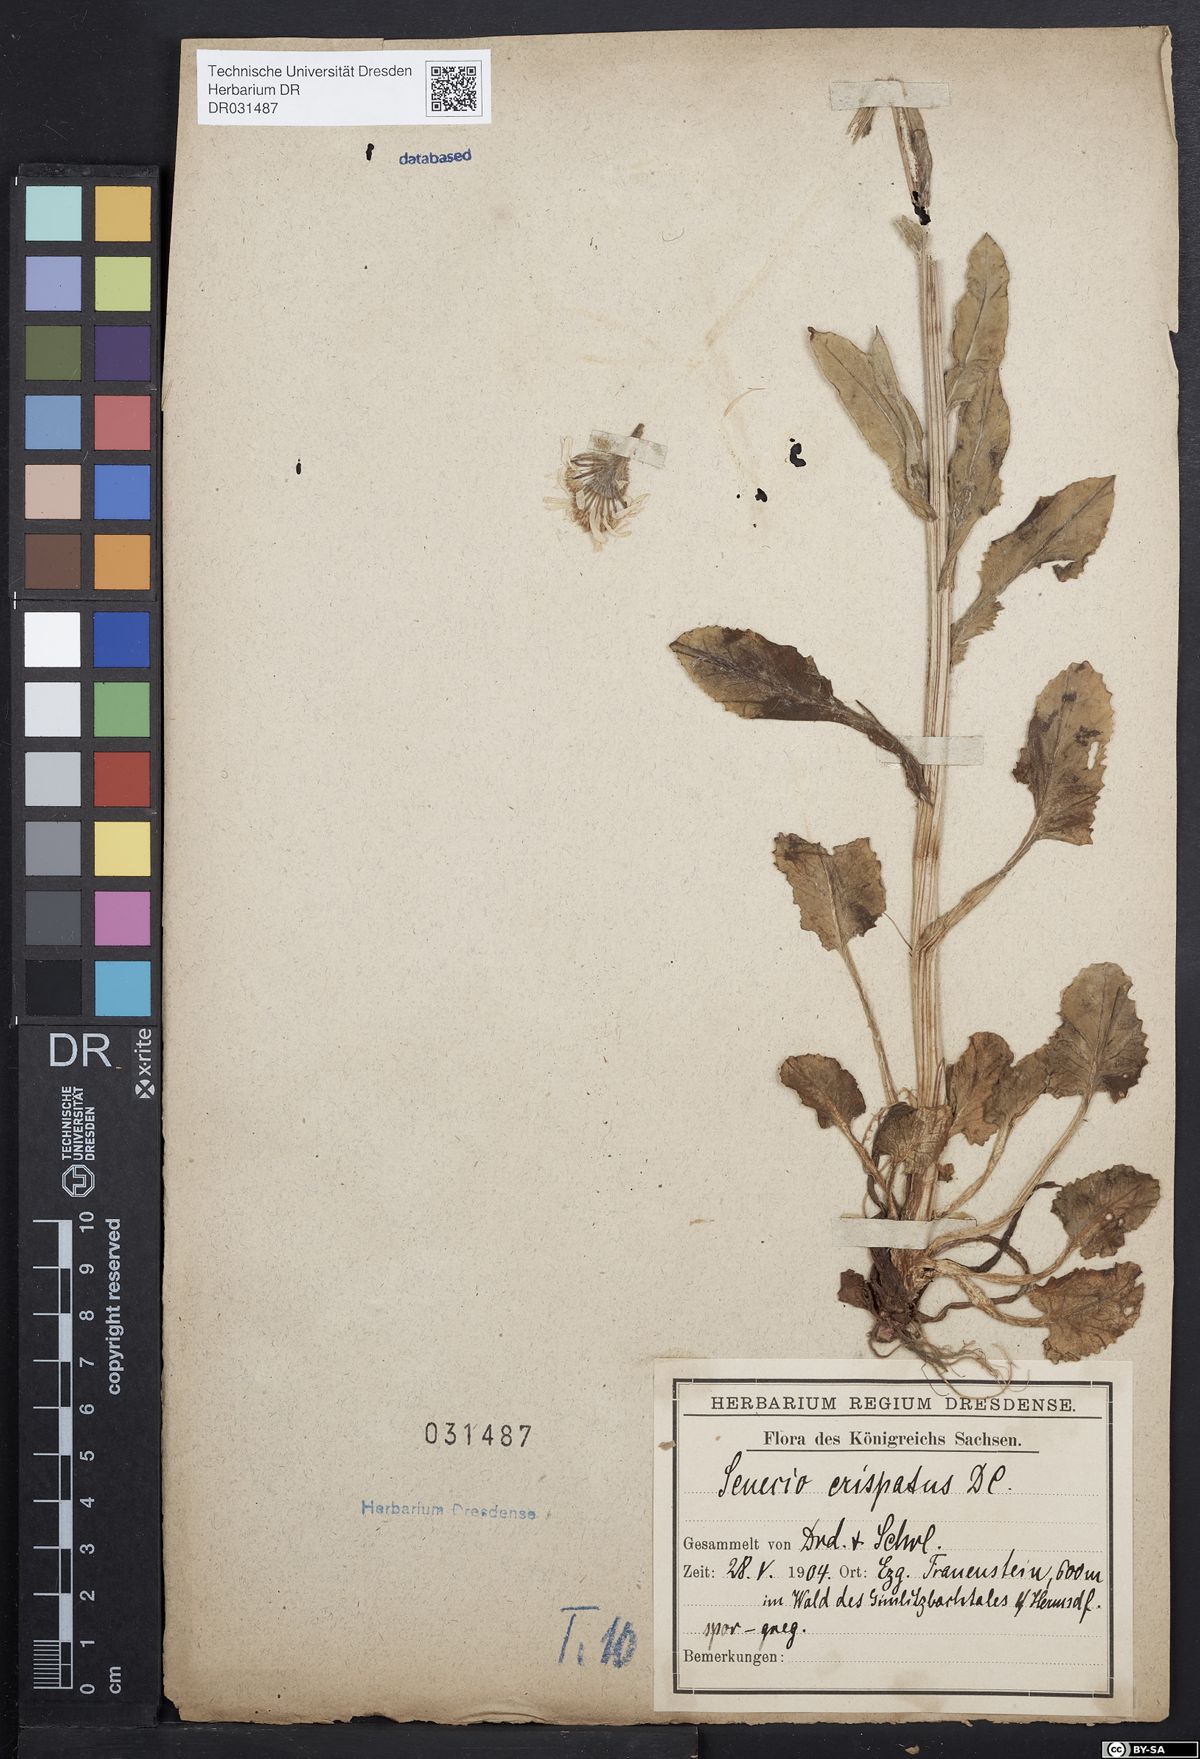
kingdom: Plantae
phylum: Tracheophyta
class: Magnoliopsida
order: Asterales
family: Asteraceae
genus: Tephroseris
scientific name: Tephroseris crispa
